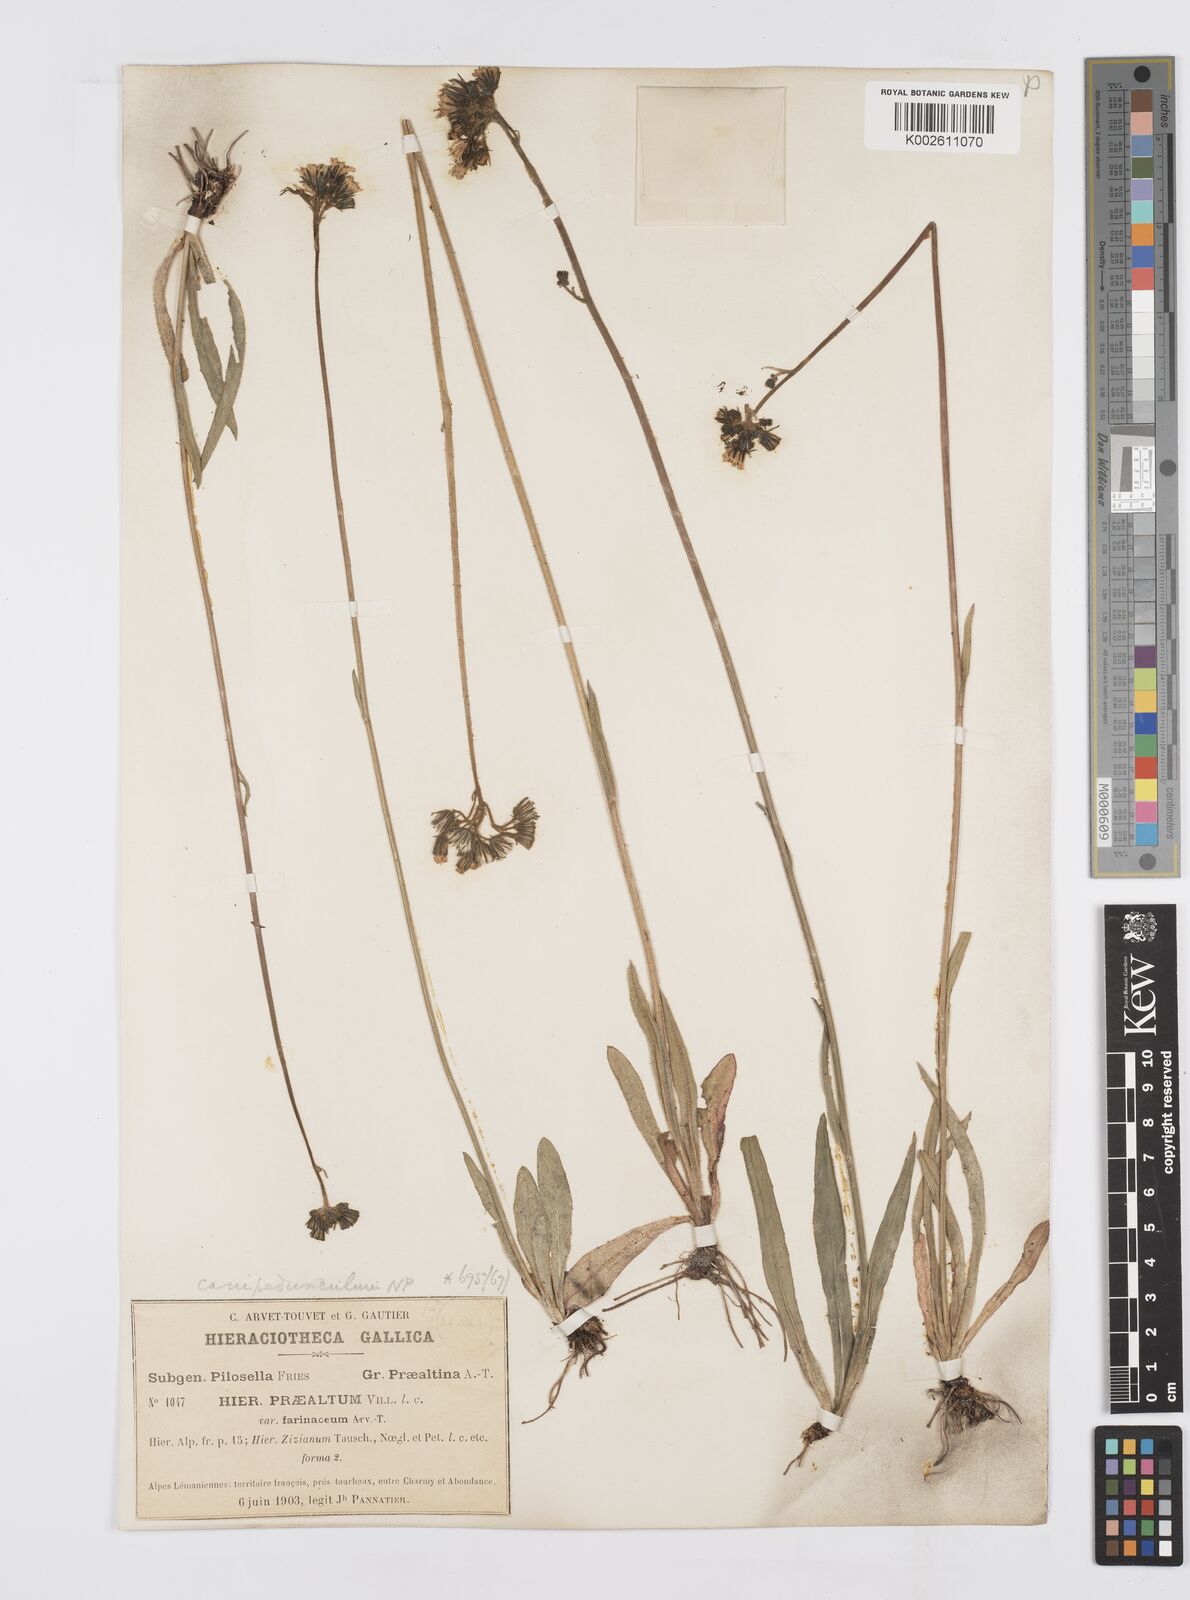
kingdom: Plantae
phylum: Tracheophyta
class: Magnoliopsida
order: Asterales
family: Asteraceae
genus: Pilosella
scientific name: Pilosella piloselloides
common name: Glaucous king-devil
